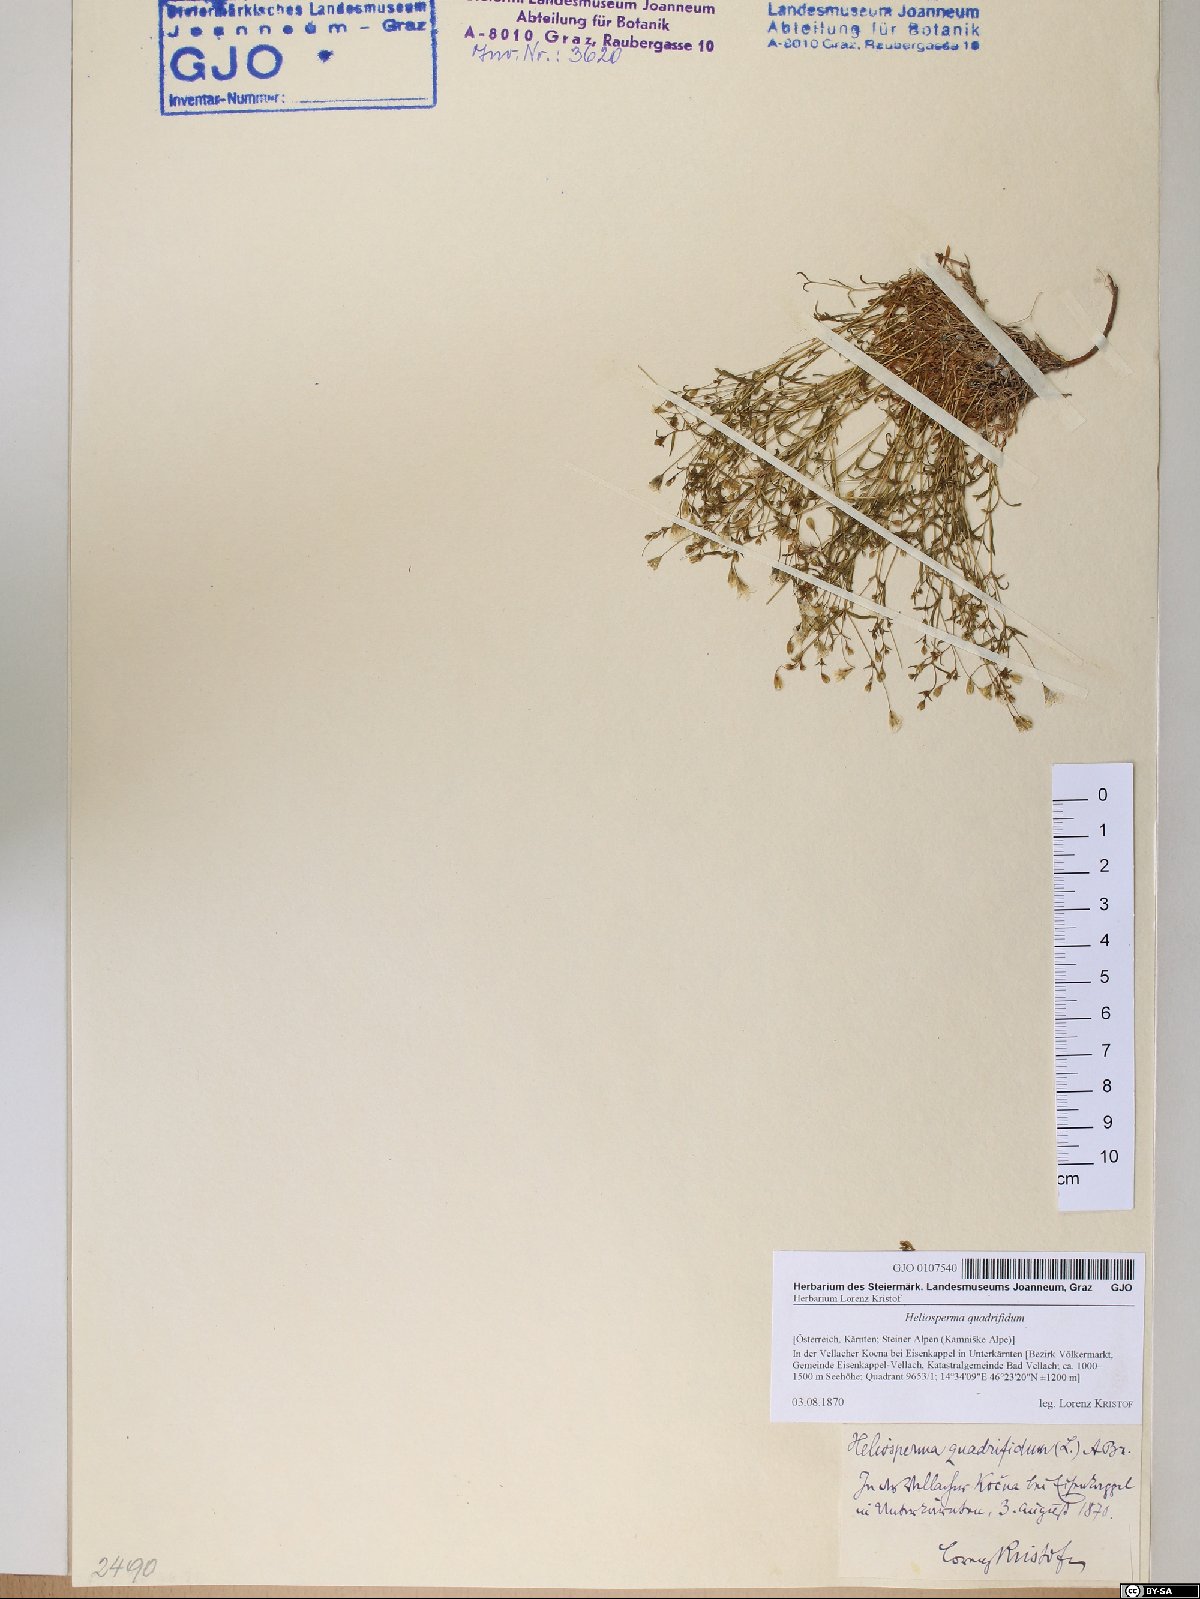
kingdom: Plantae
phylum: Tracheophyta
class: Magnoliopsida
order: Caryophyllales
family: Caryophyllaceae
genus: Heliosperma
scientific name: Heliosperma alpestre
